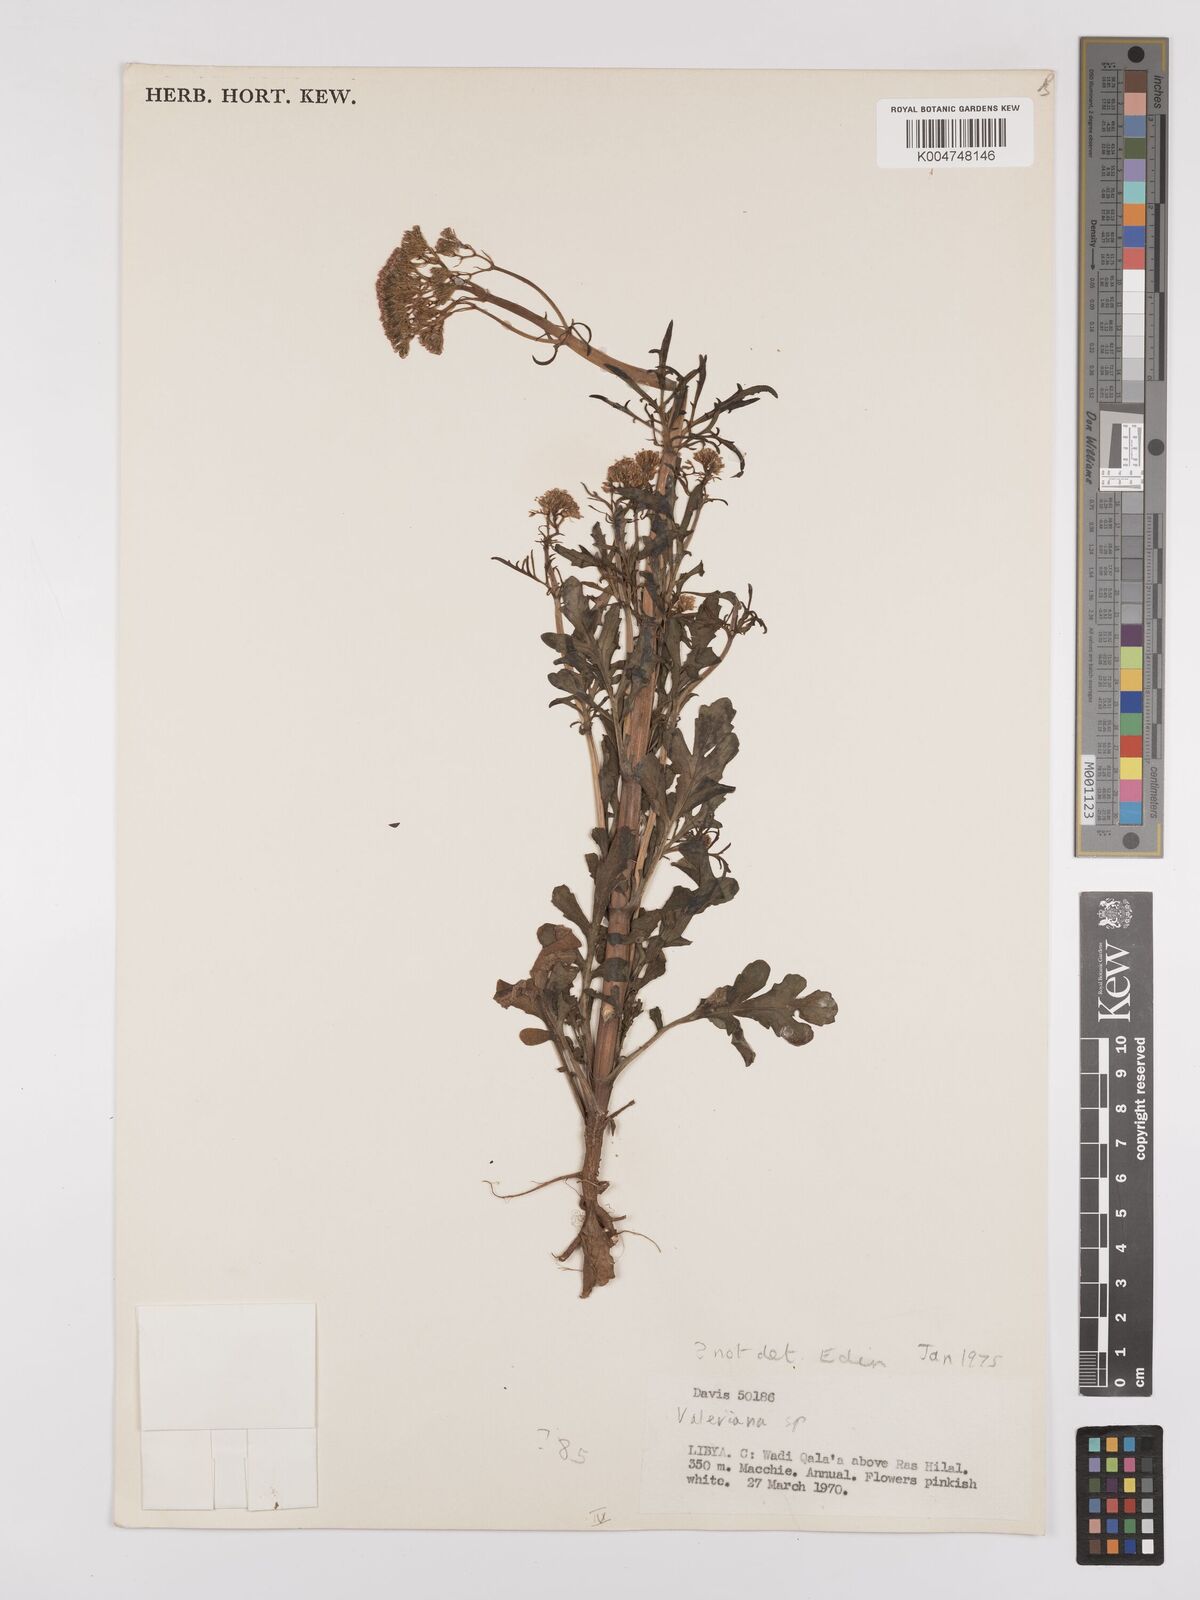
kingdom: Plantae
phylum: Tracheophyta
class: Magnoliopsida
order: Dipsacales
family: Caprifoliaceae
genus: Valeriana
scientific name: Valeriana
